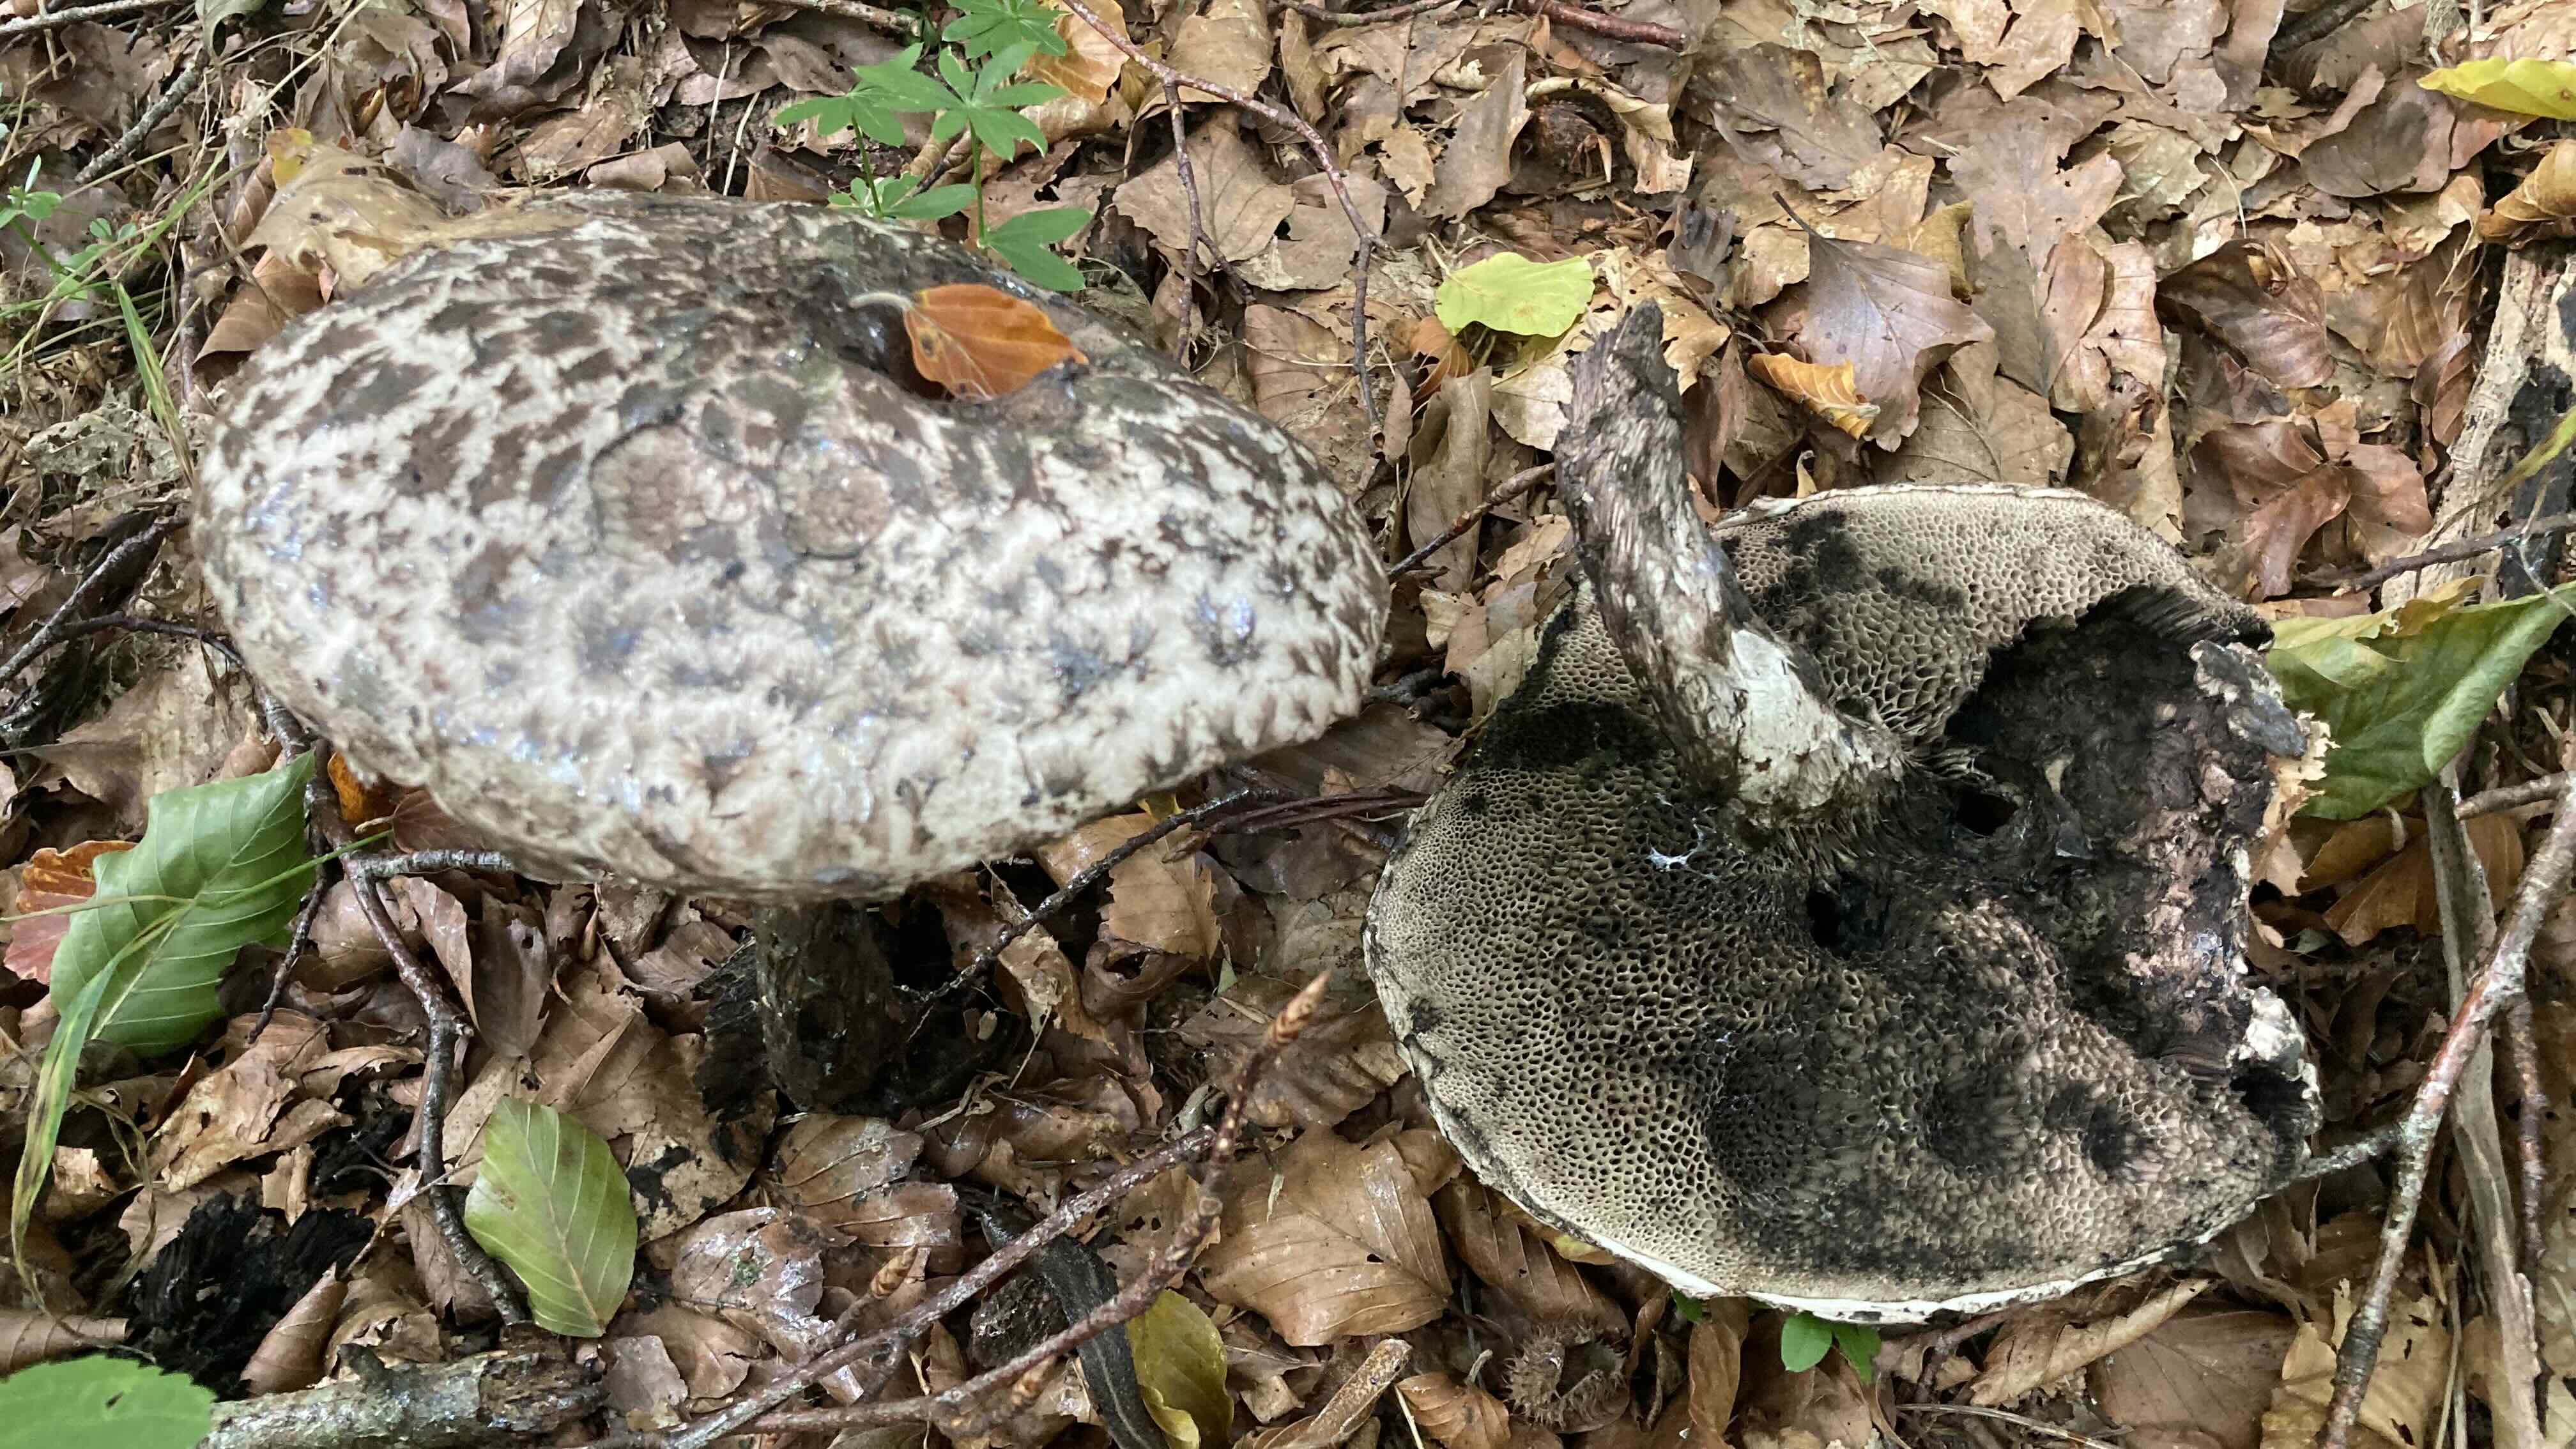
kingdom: Fungi
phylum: Basidiomycota
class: Agaricomycetes
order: Boletales
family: Boletaceae
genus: Strobilomyces
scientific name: Strobilomyces strobilaceus
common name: koglerørhat
